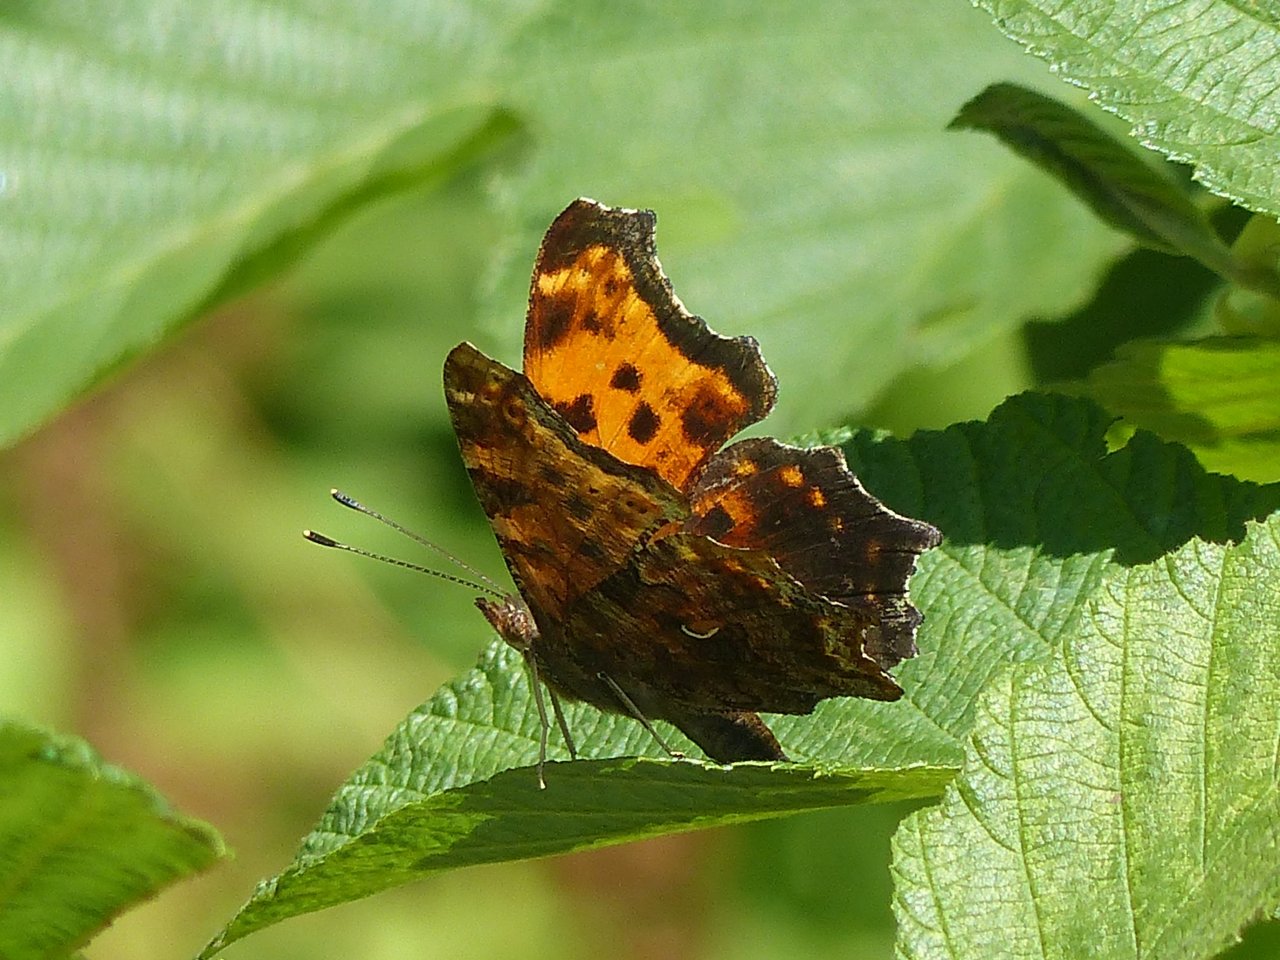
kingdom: Animalia
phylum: Arthropoda
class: Insecta
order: Lepidoptera
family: Nymphalidae
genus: Polygonia
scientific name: Polygonia comma
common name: Eastern Comma
